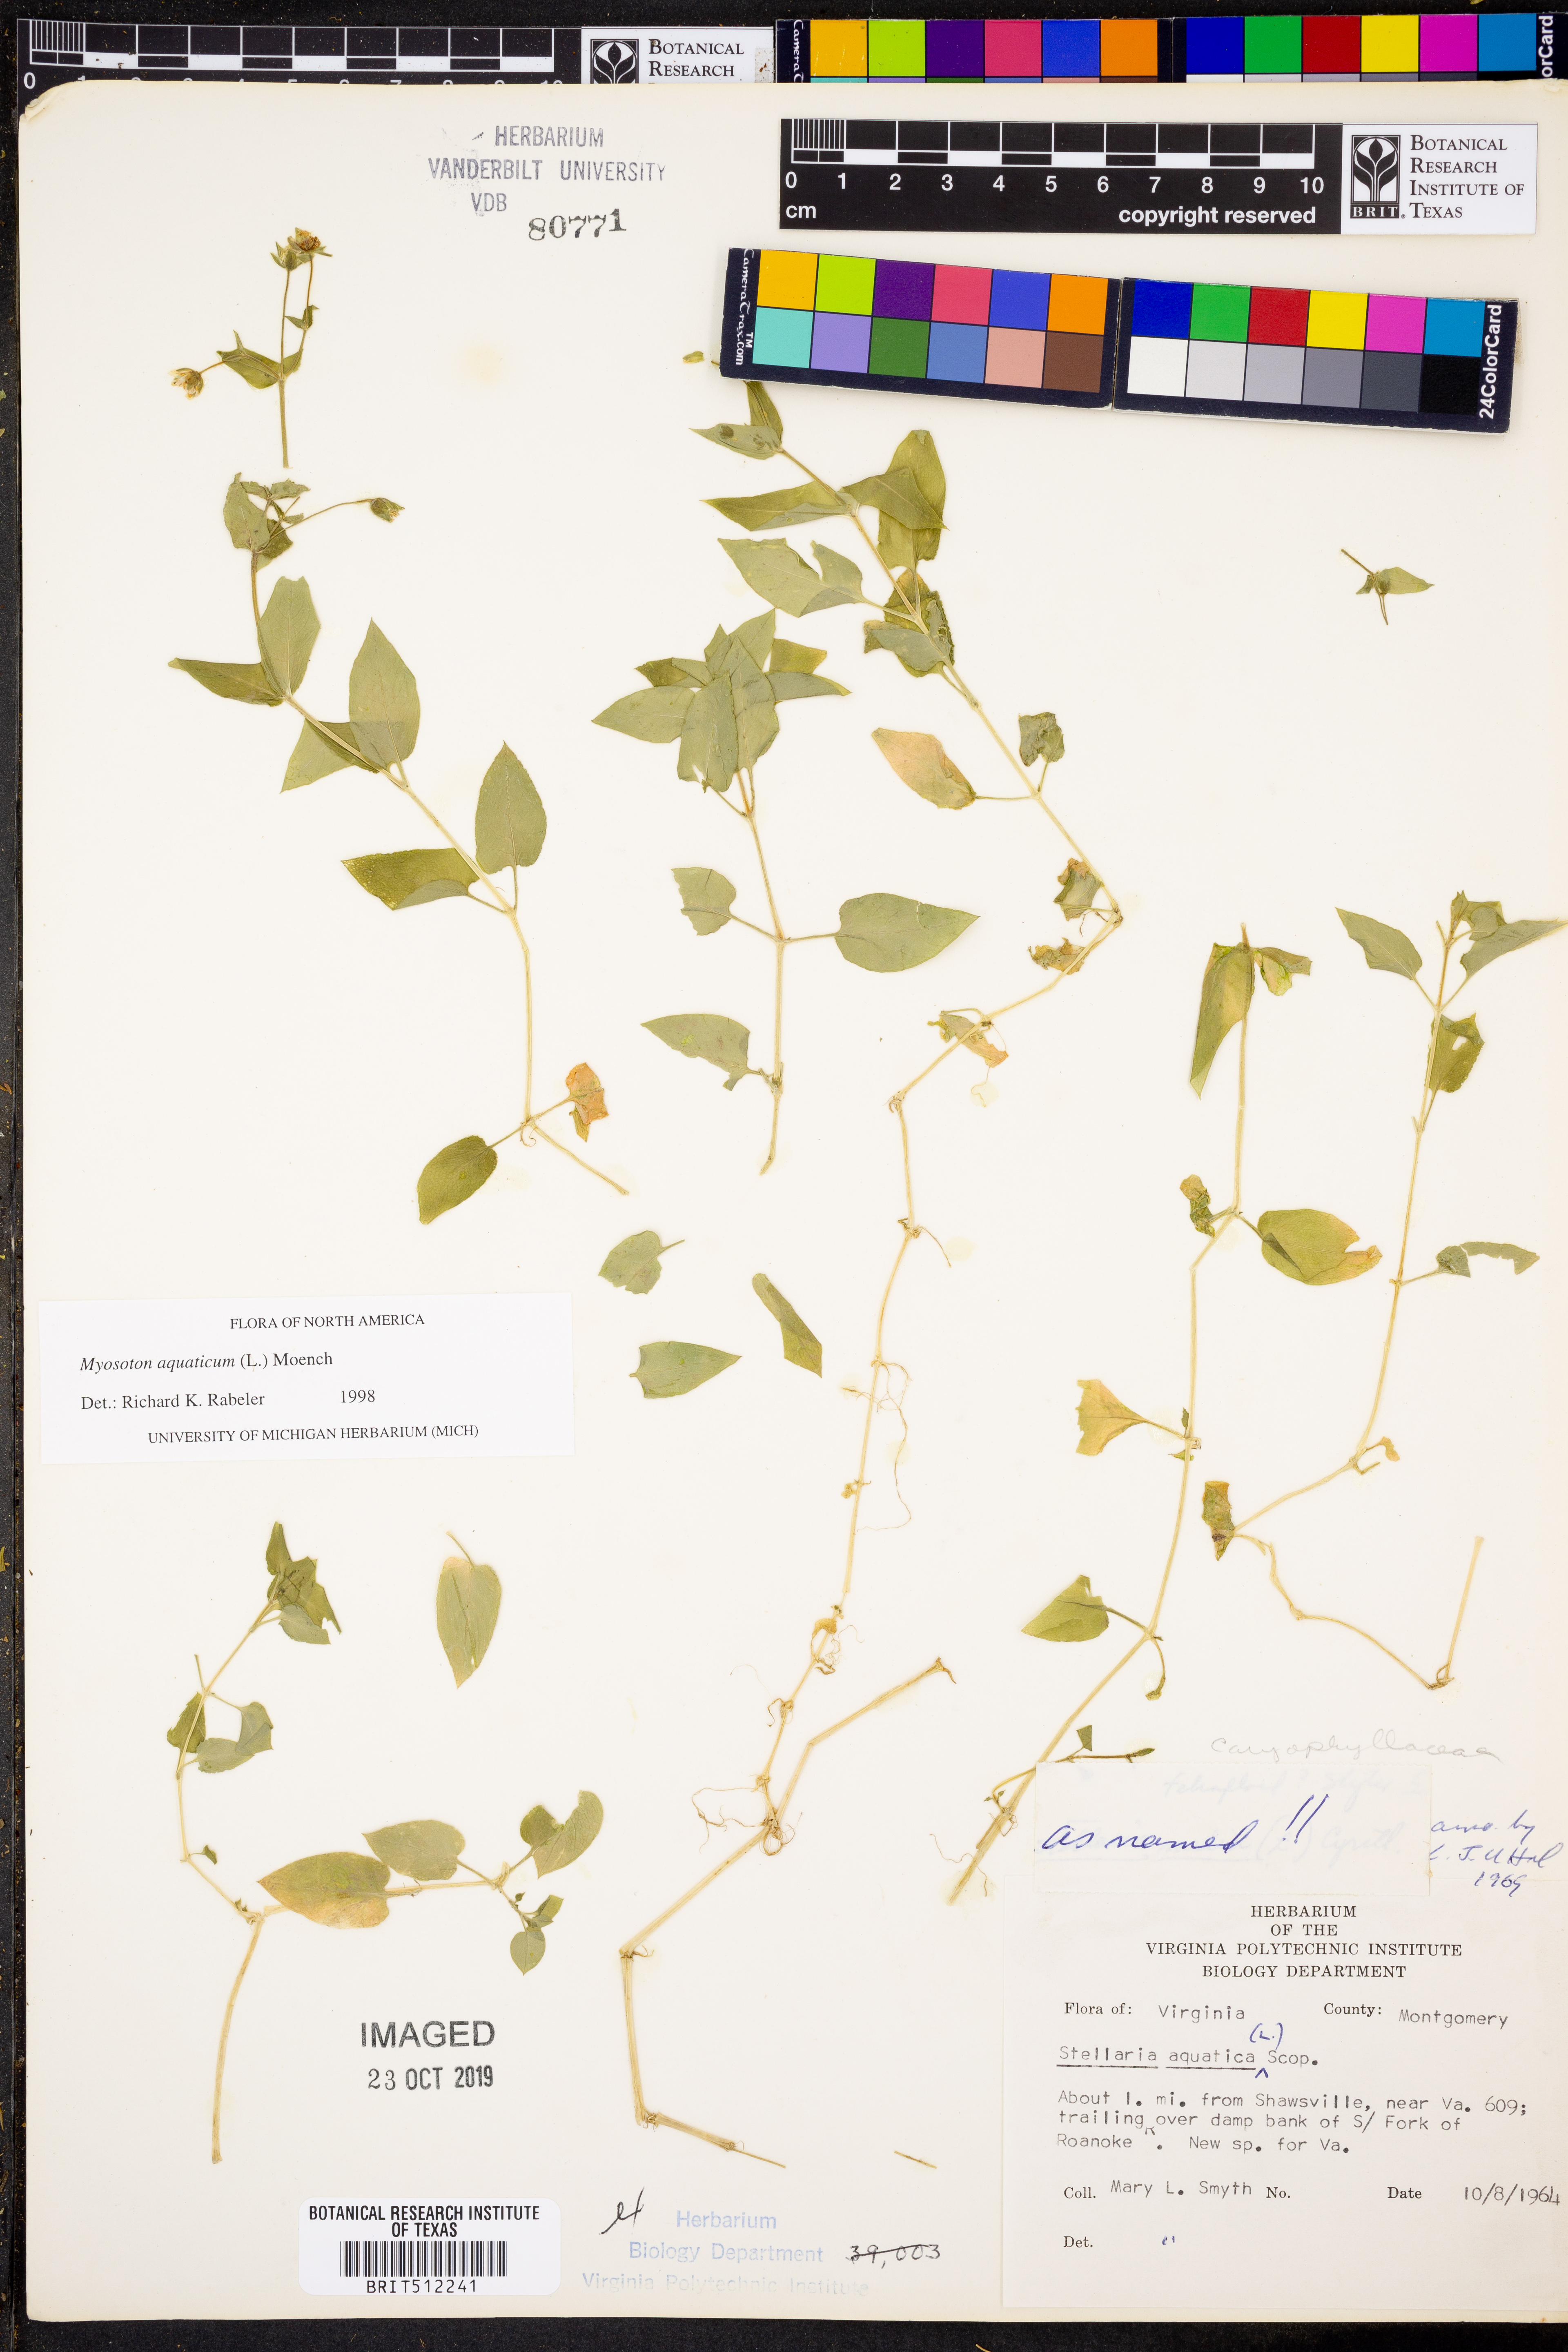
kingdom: Plantae
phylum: Tracheophyta
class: Magnoliopsida
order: Caryophyllales
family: Caryophyllaceae
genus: Stellaria
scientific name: Stellaria aquatica
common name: Water chickweed
